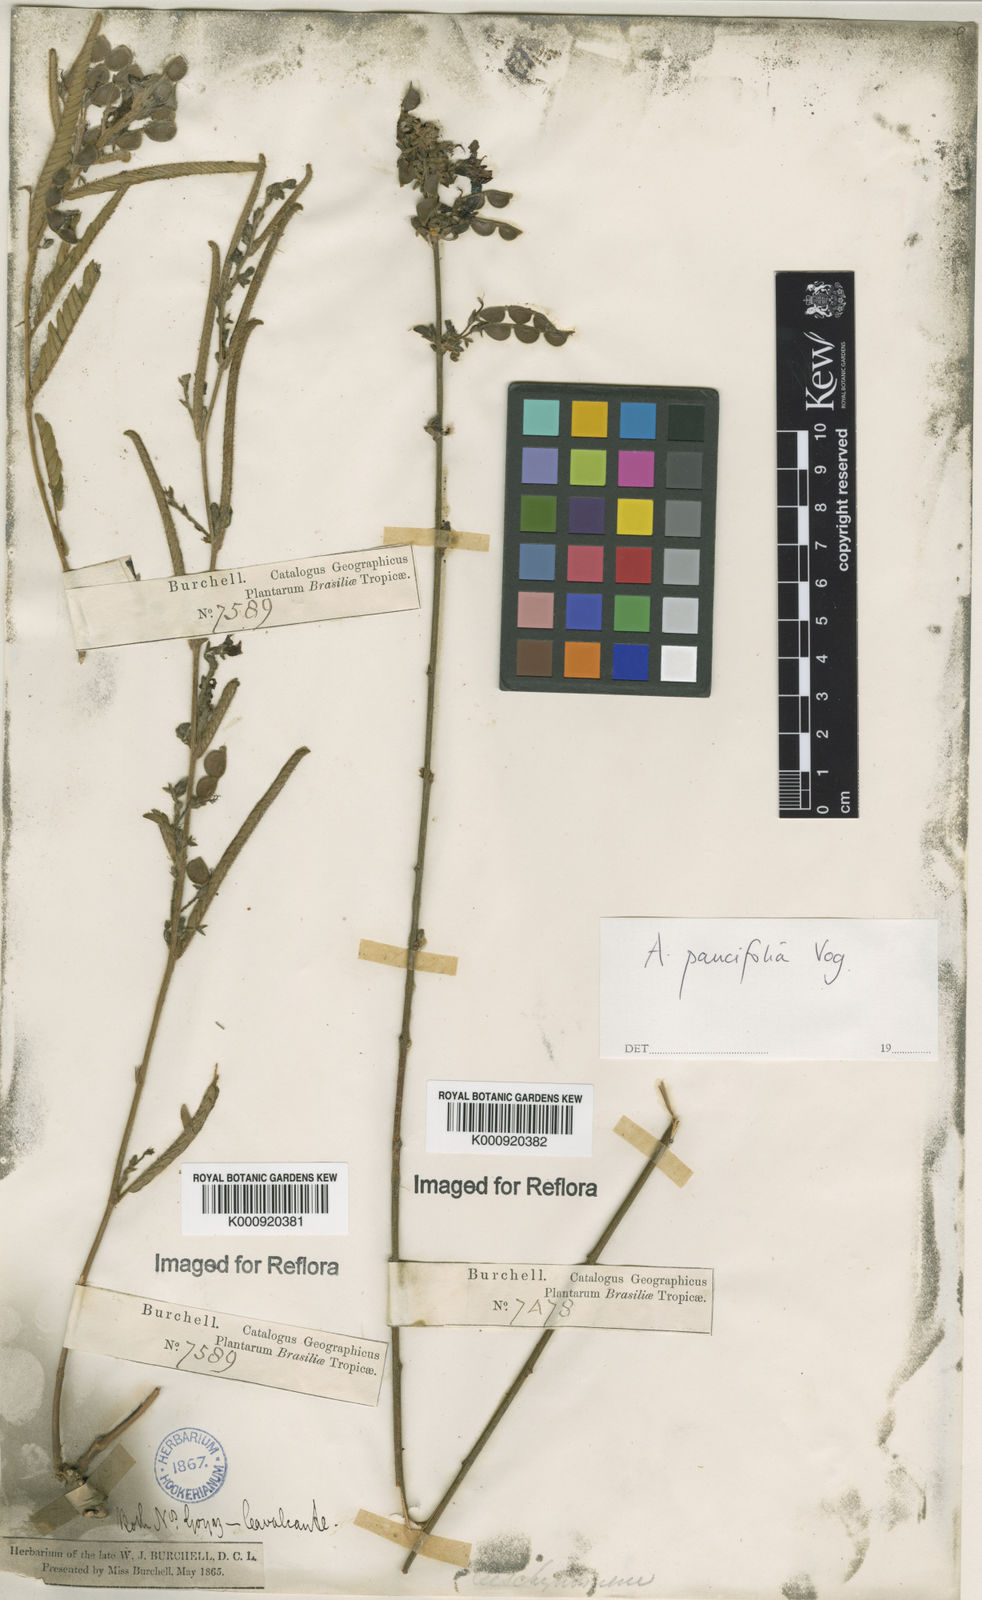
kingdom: Plantae
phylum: Tracheophyta
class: Magnoliopsida
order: Fabales
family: Fabaceae
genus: Ctenodon
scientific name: Ctenodon paucifolius
